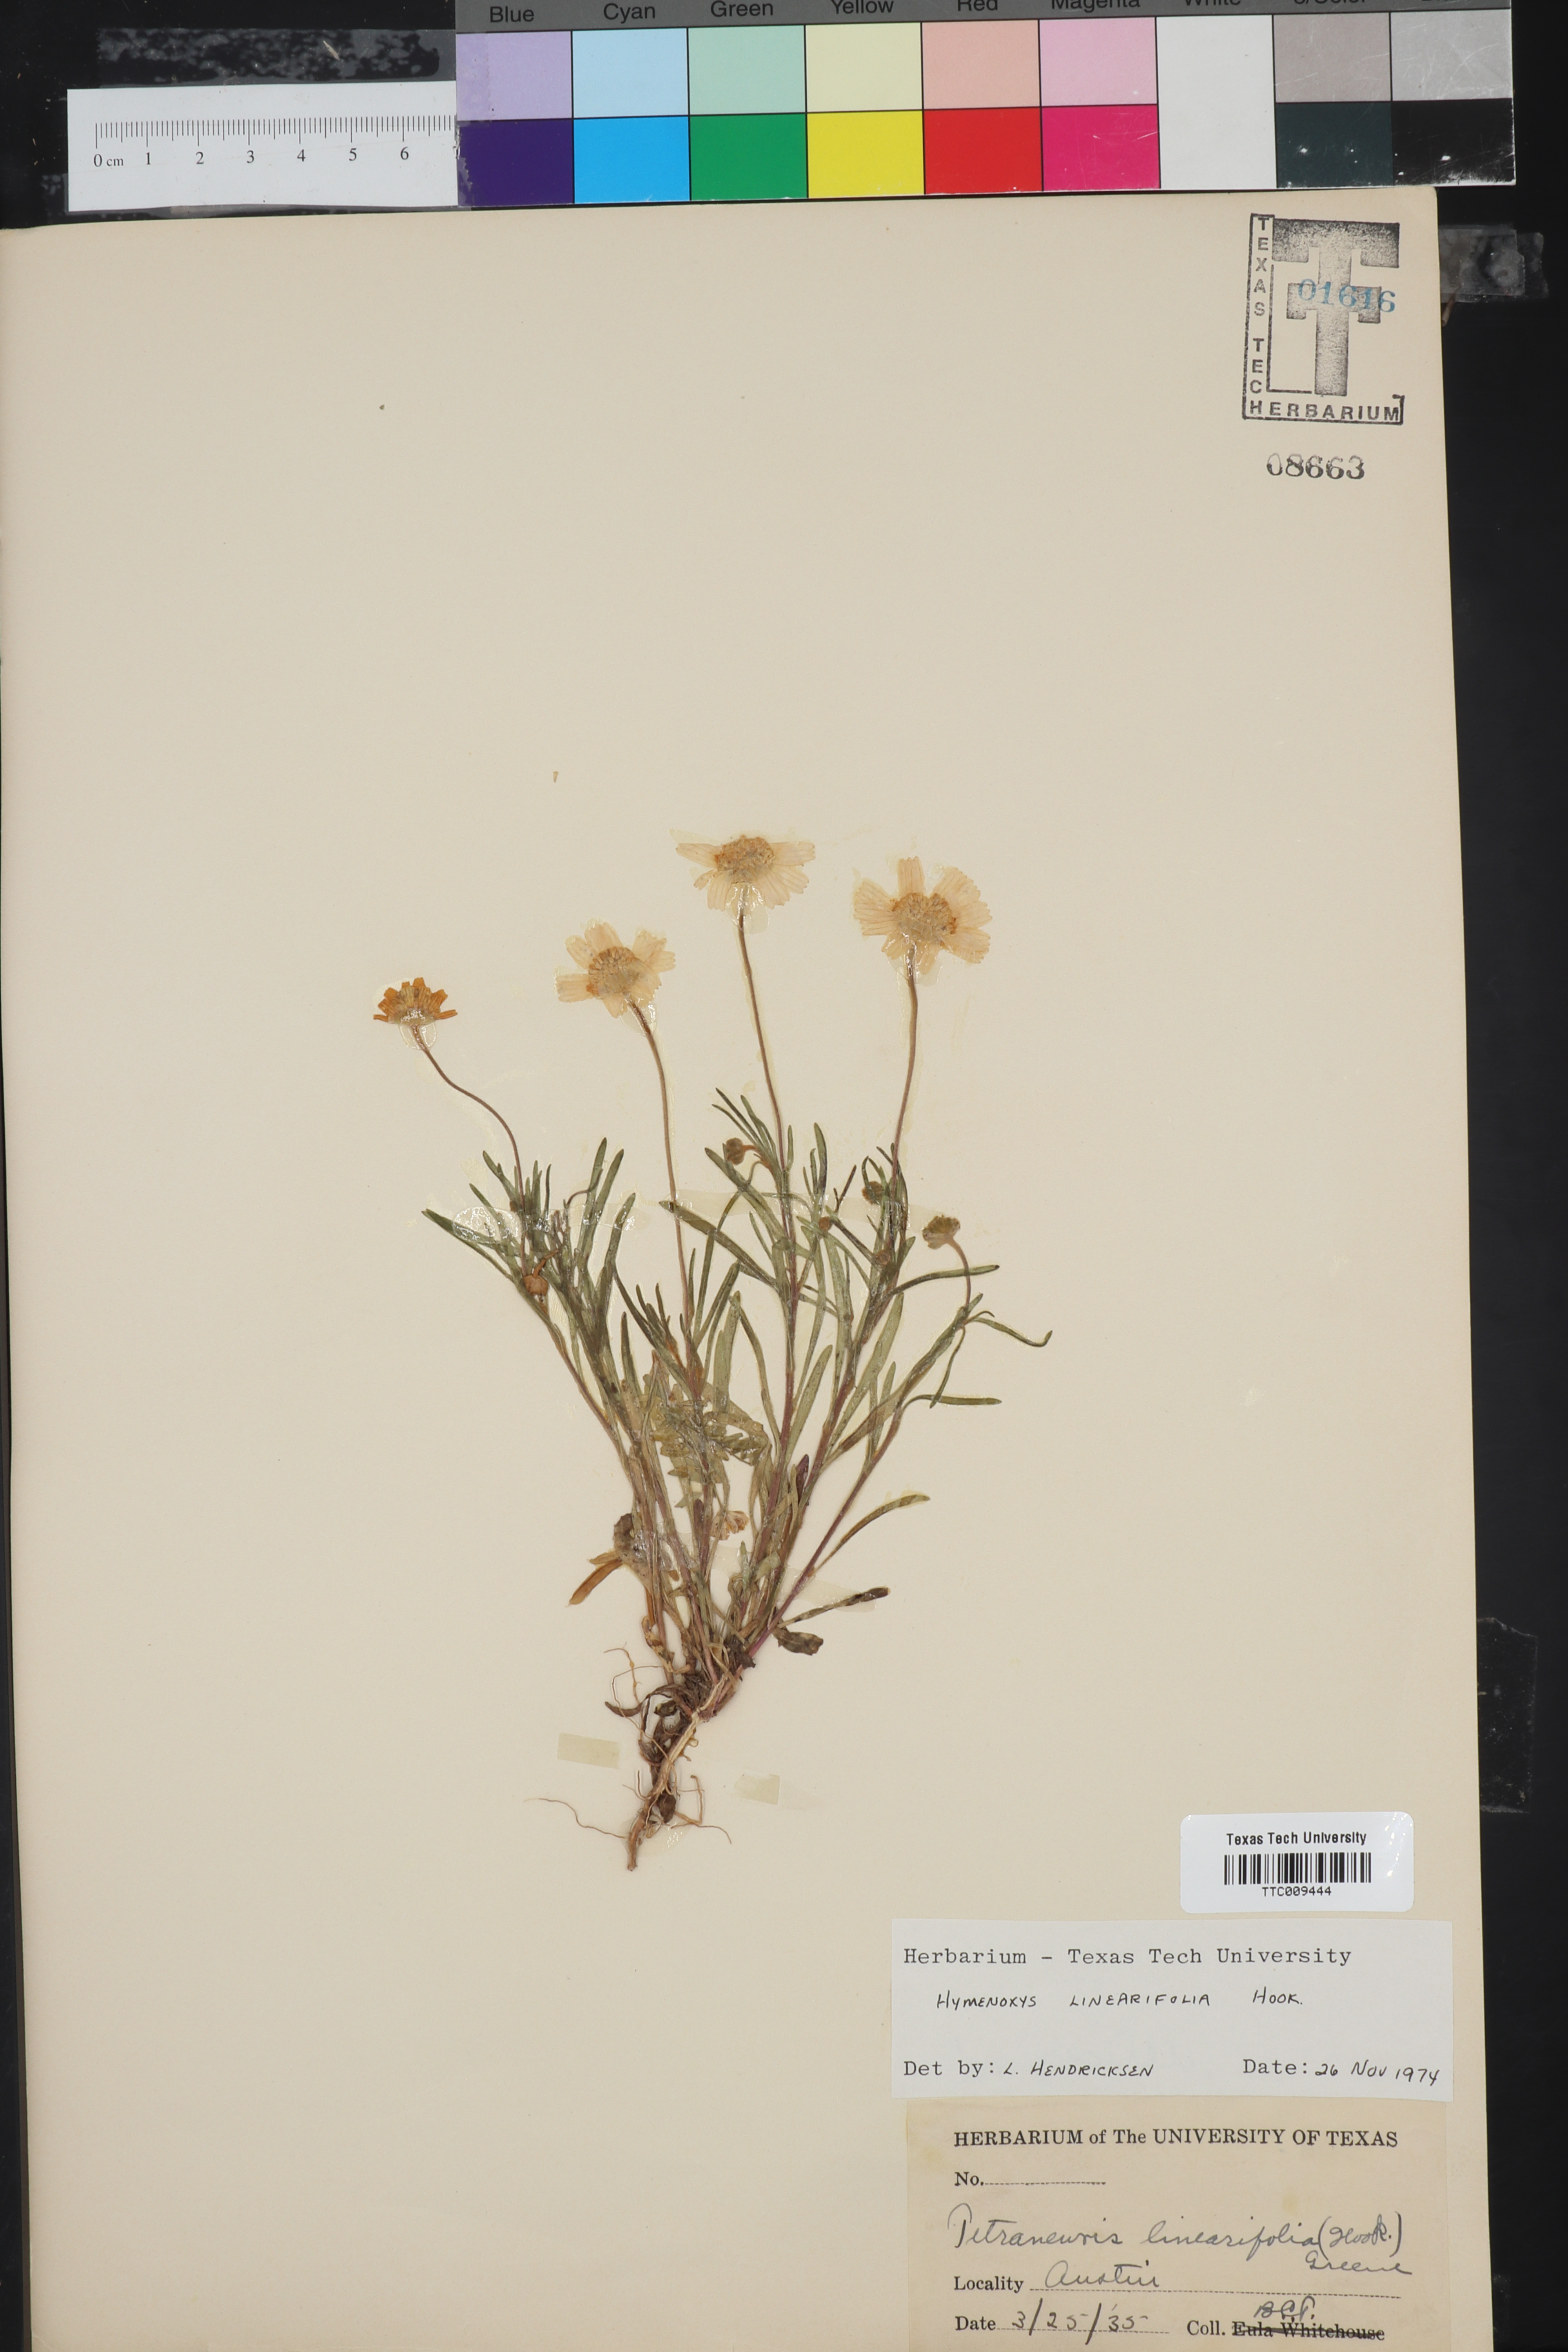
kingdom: Plantae
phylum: Tracheophyta
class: Magnoliopsida
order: Asterales
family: Asteraceae
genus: Tetraneuris
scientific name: Tetraneuris linearifolia
